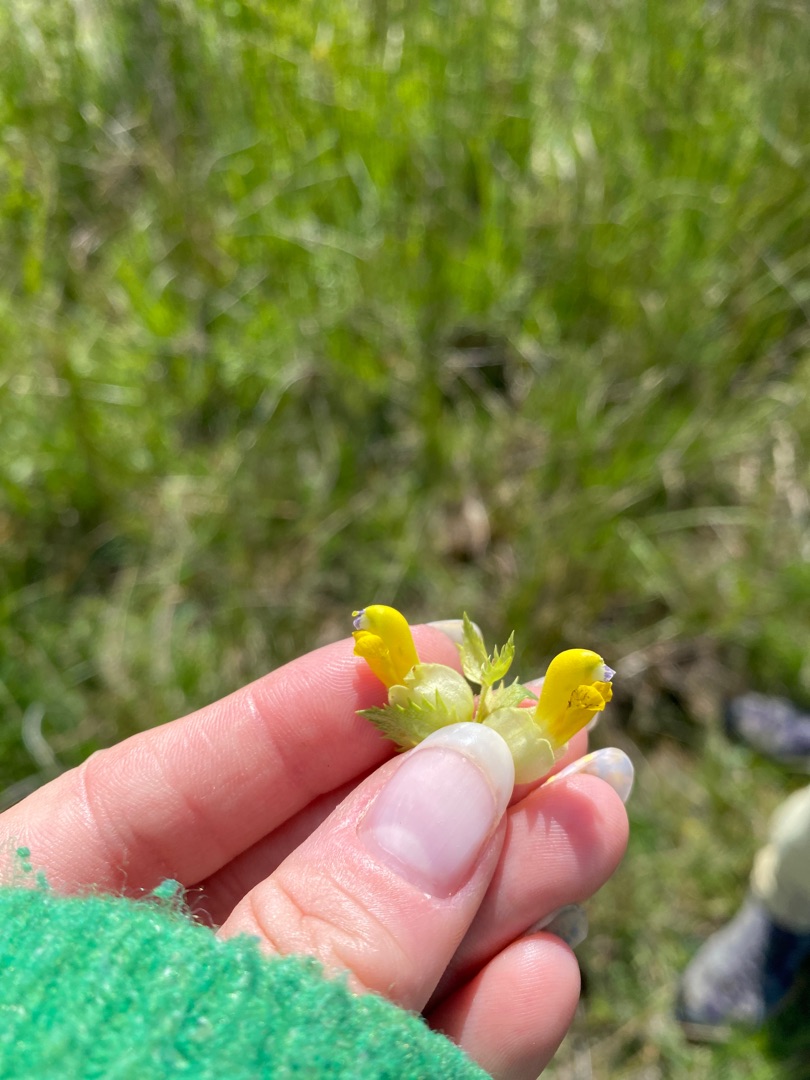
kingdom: Plantae
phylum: Tracheophyta
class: Magnoliopsida
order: Lamiales
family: Orobanchaceae
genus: Rhinanthus
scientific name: Rhinanthus
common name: Stor skjaller
